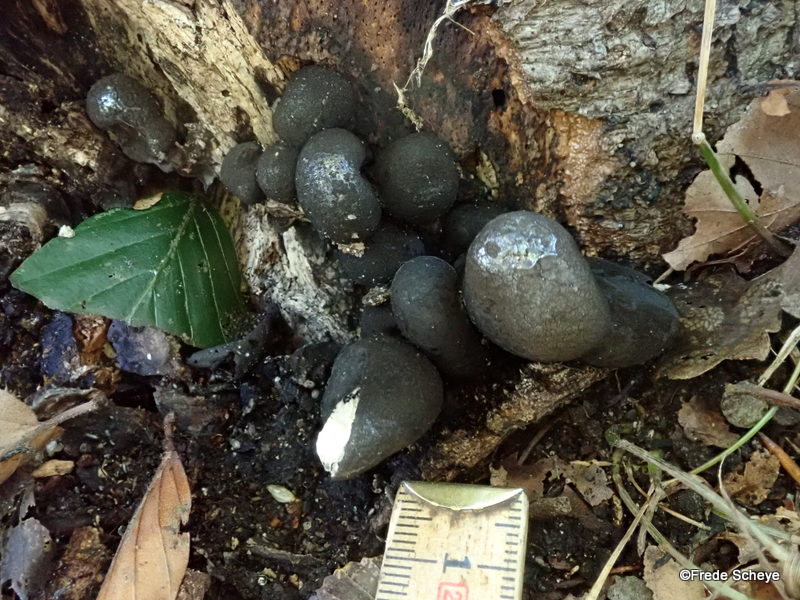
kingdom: Fungi
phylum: Ascomycota
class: Sordariomycetes
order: Xylariales
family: Xylariaceae
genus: Xylaria
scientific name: Xylaria polymorpha
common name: kølle-stødsvamp
